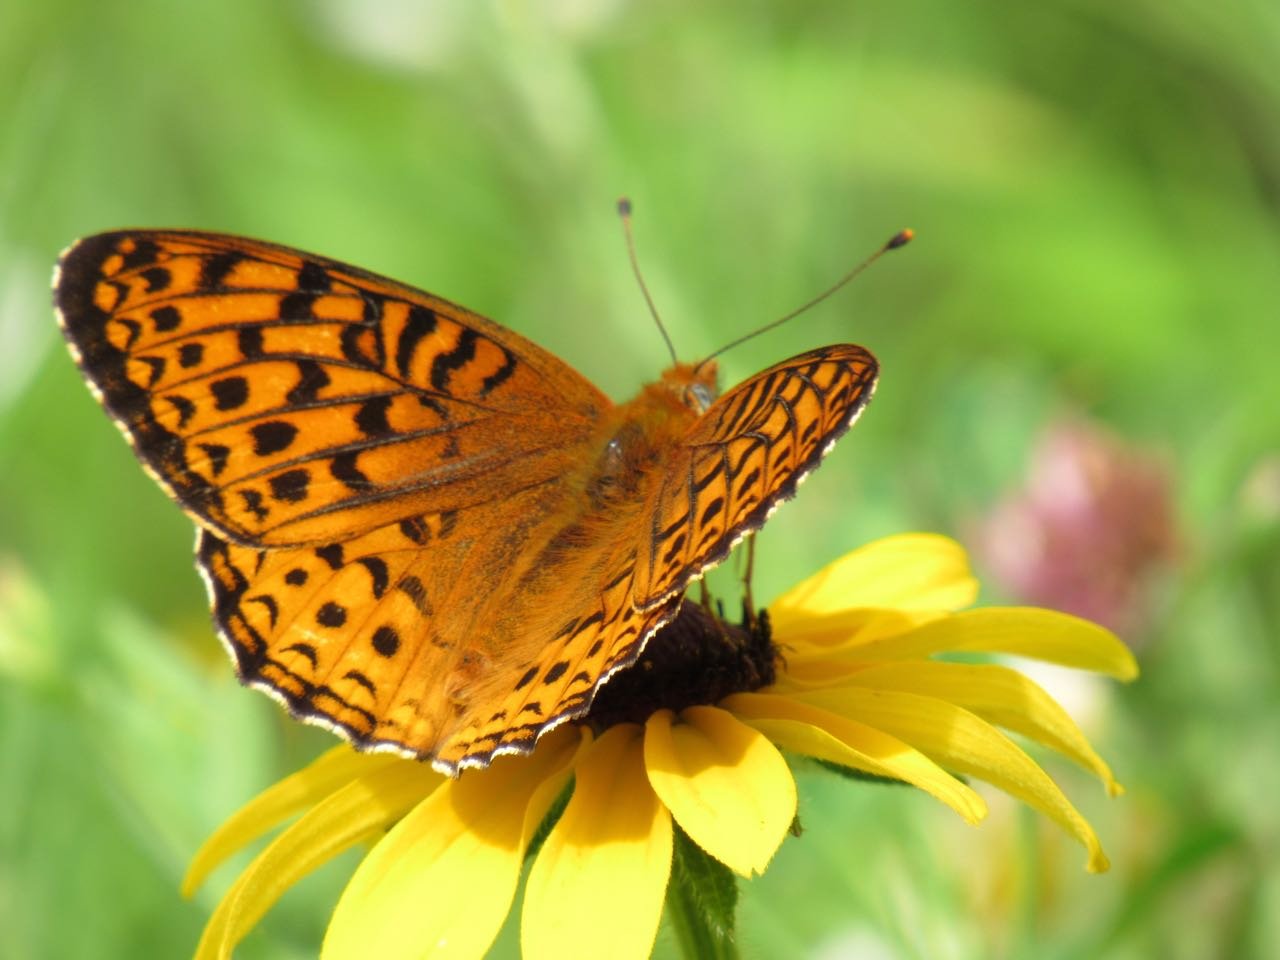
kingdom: Animalia
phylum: Arthropoda
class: Insecta
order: Lepidoptera
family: Nymphalidae
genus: Speyeria
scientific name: Speyeria atlantis
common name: Atlantis Fritillary
